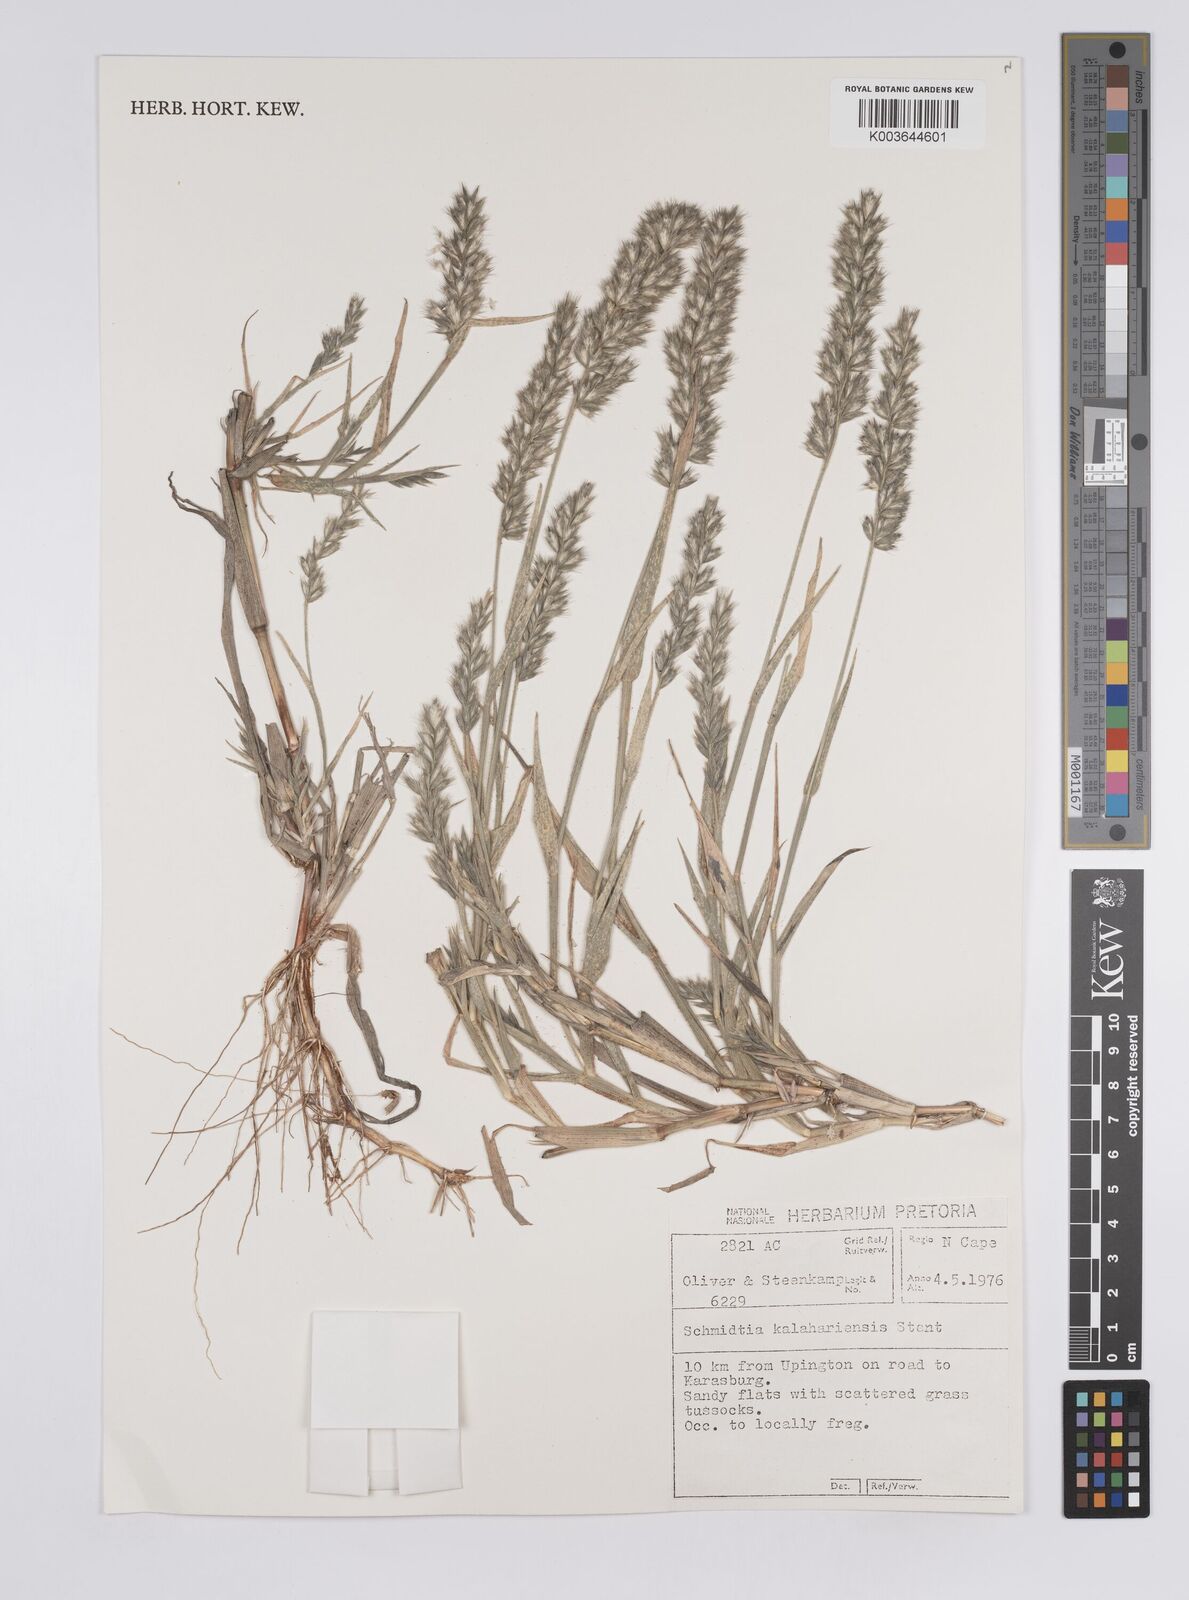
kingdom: Plantae
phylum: Tracheophyta
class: Liliopsida
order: Poales
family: Poaceae
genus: Schmidtia
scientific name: Schmidtia kalahariensis
